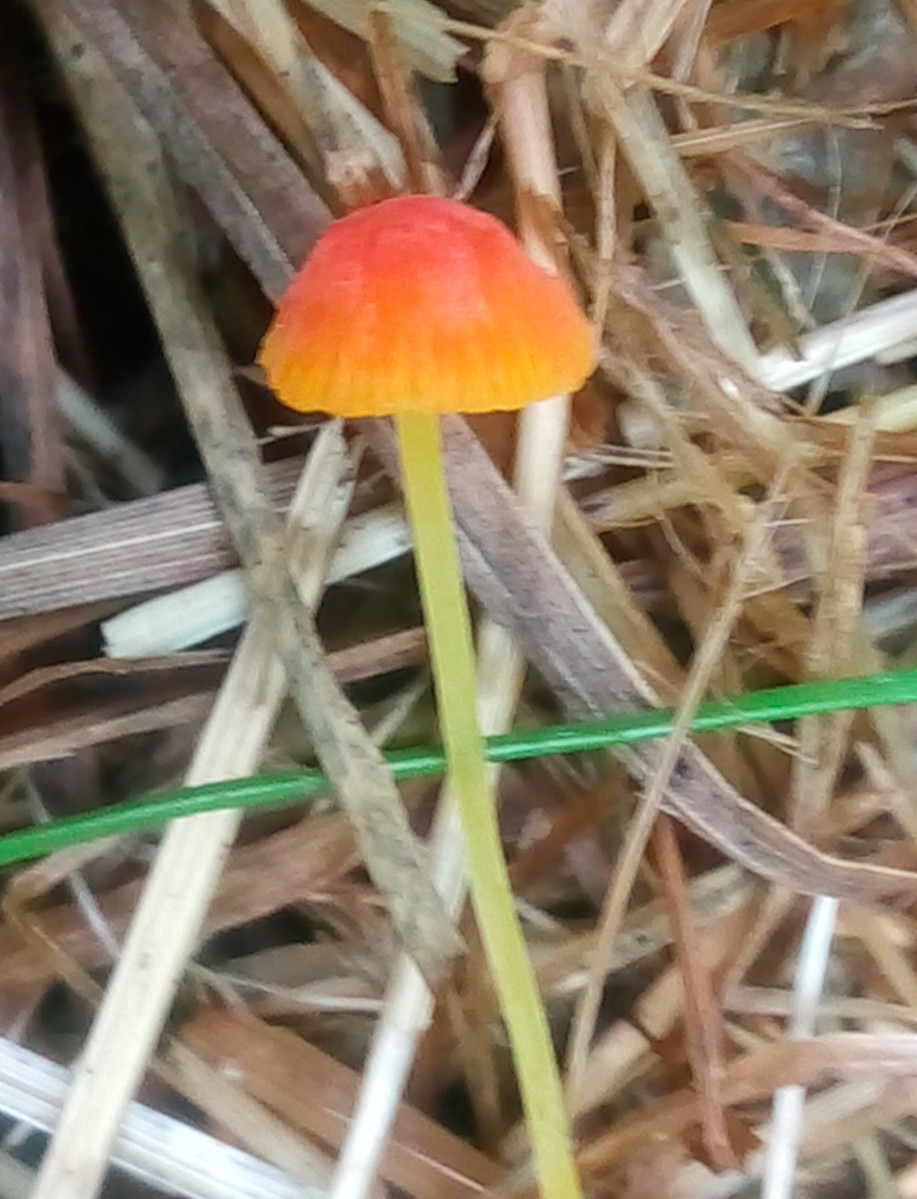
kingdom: Fungi
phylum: Basidiomycota
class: Agaricomycetes
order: Agaricales
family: Mycenaceae
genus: Mycena
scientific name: Mycena acicula
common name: orange huesvamp
